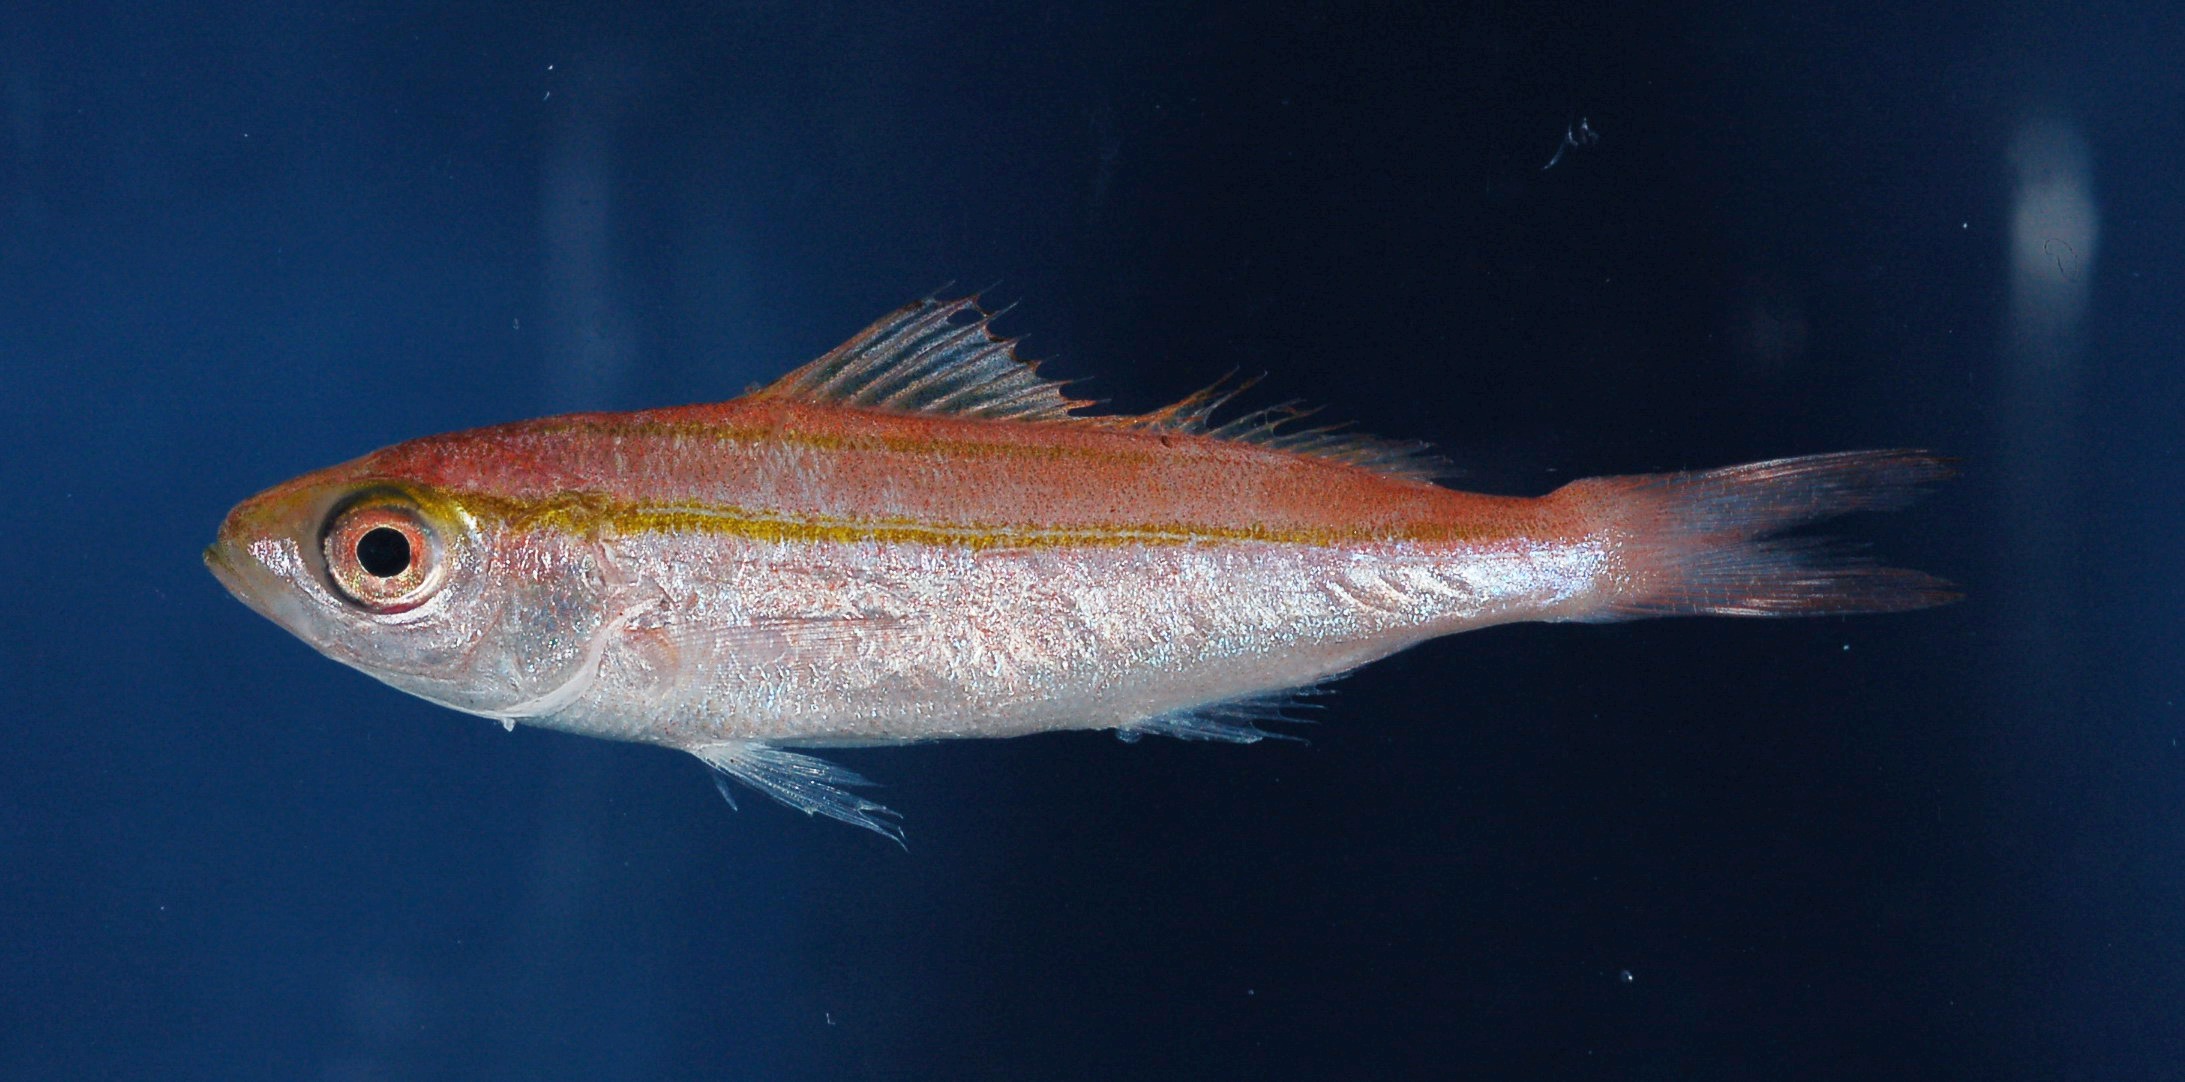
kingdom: Animalia
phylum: Chordata
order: Perciformes
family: Caesionidae
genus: Pterocaesio
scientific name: Pterocaesio marri
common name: Marr's fusilier
